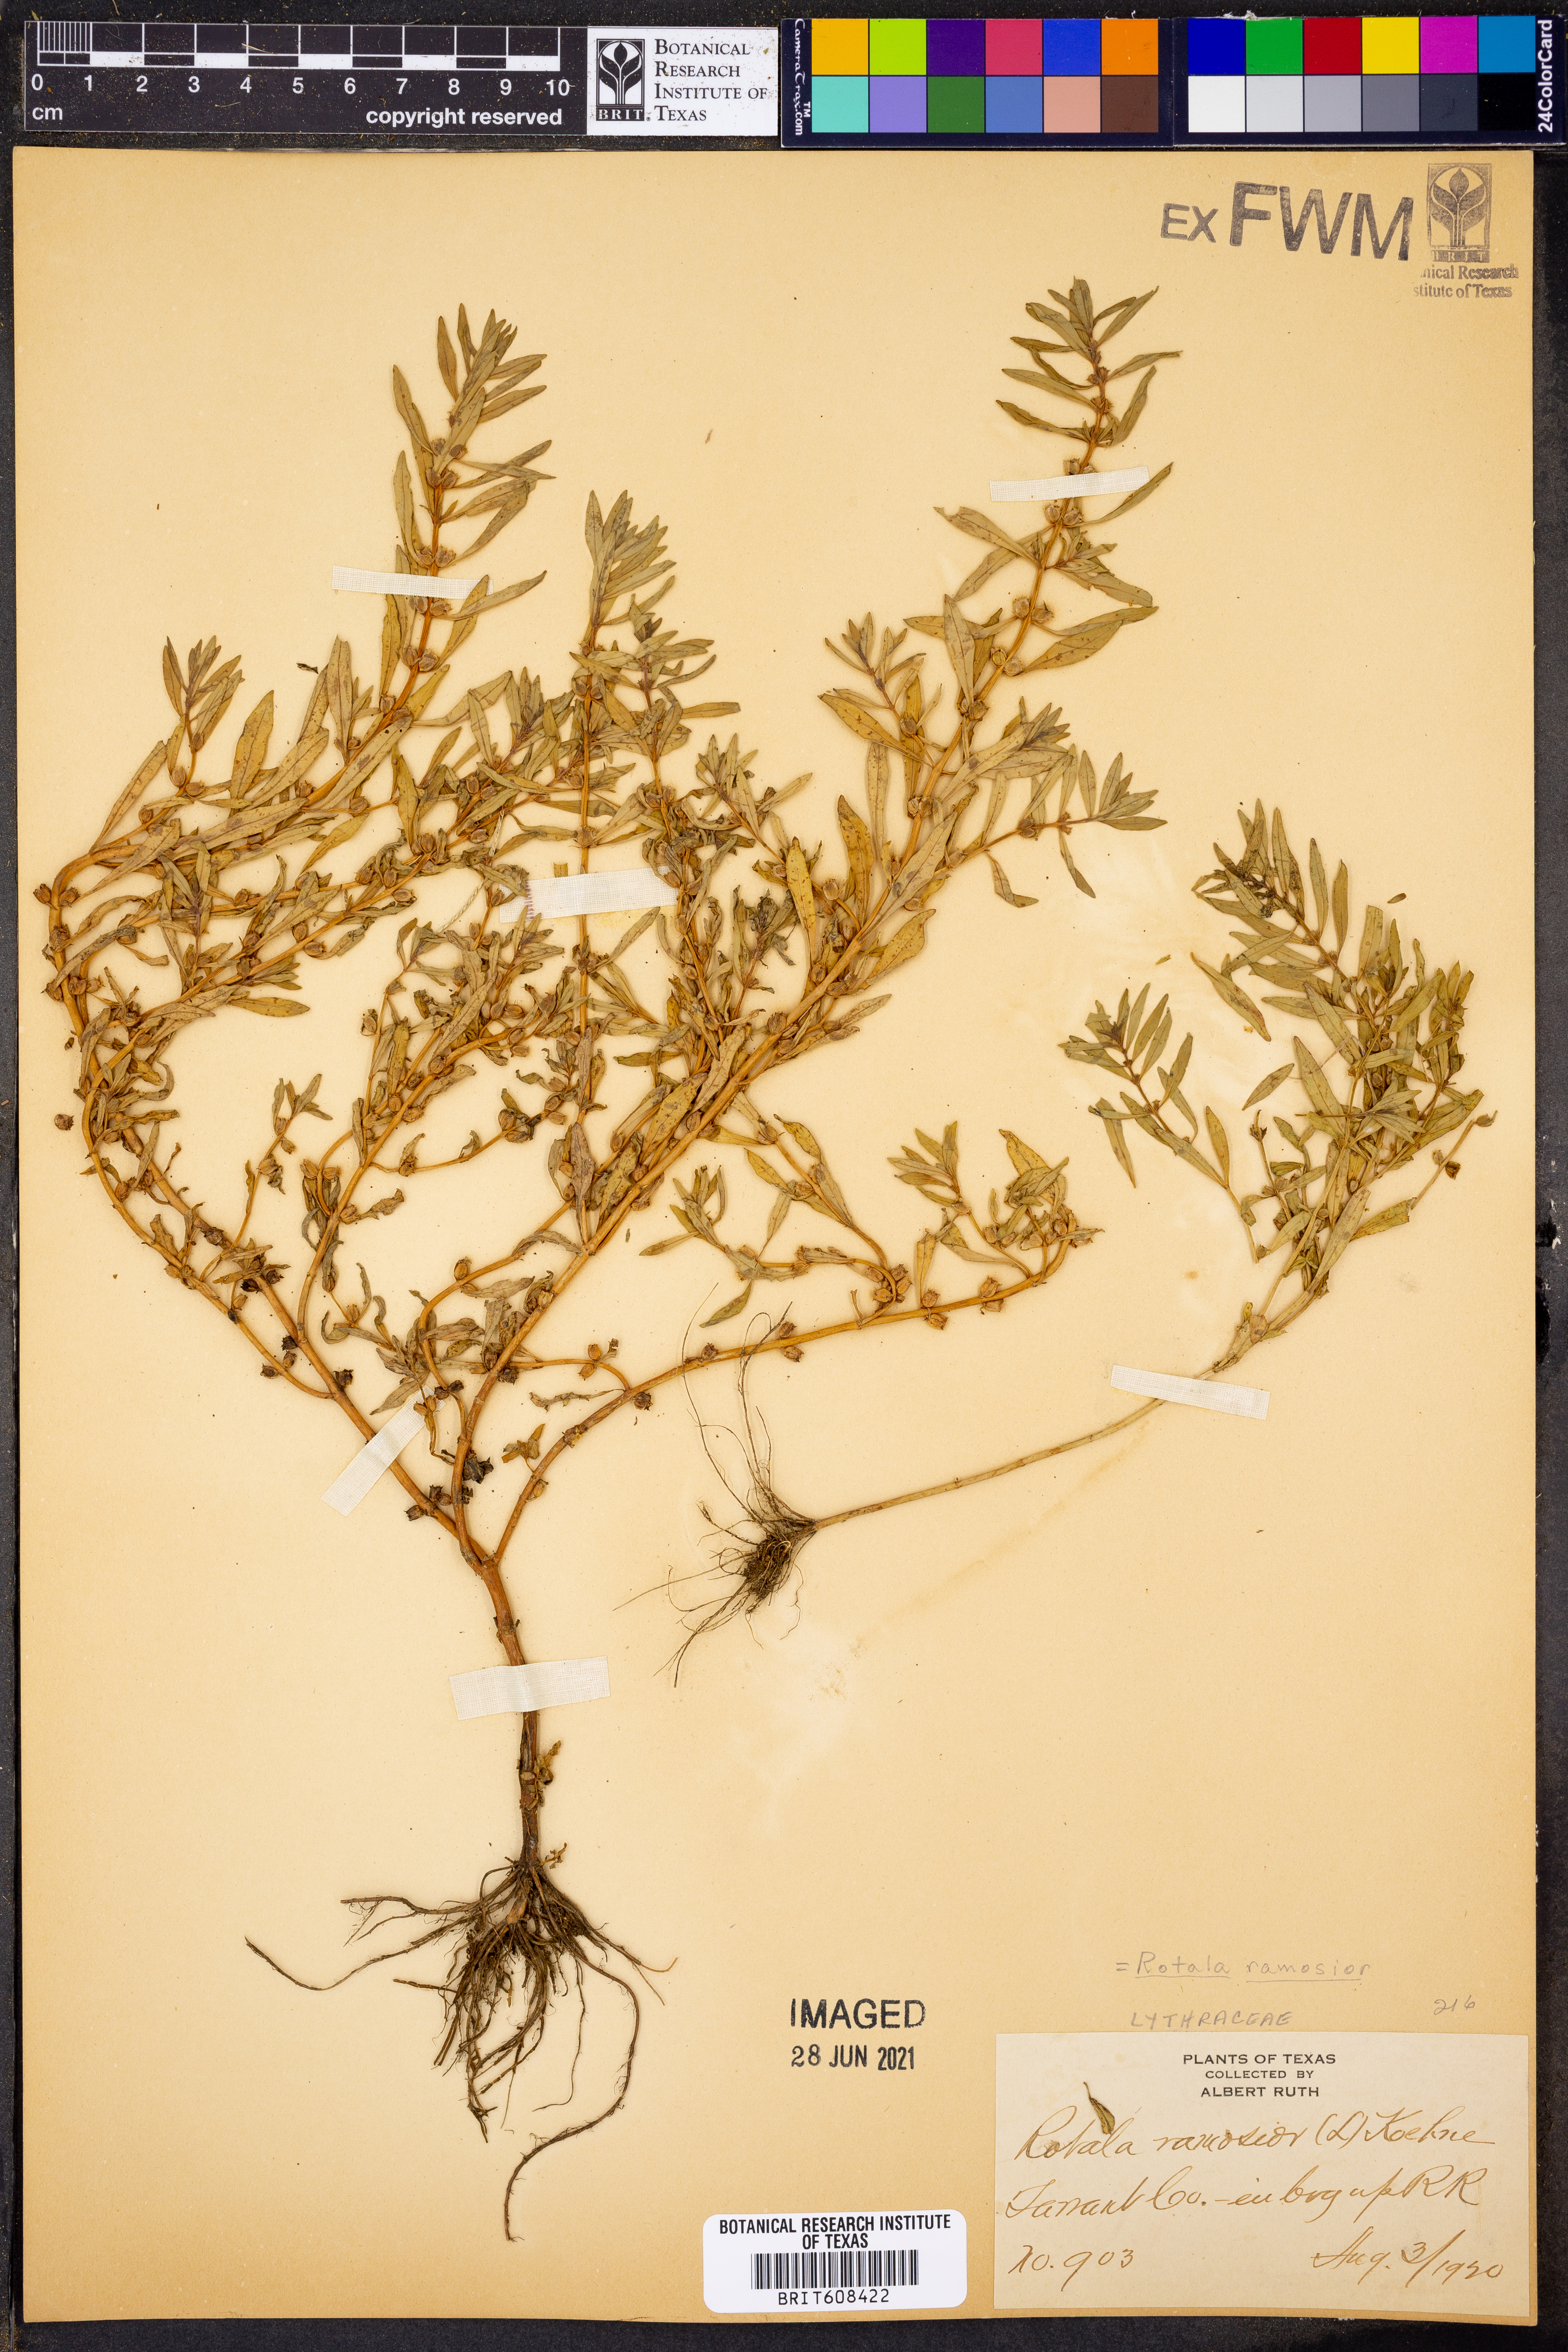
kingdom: Plantae
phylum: Tracheophyta
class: Magnoliopsida
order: Myrtales
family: Lythraceae
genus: Rotala
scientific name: Rotala ramosior
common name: Lowland rotala
